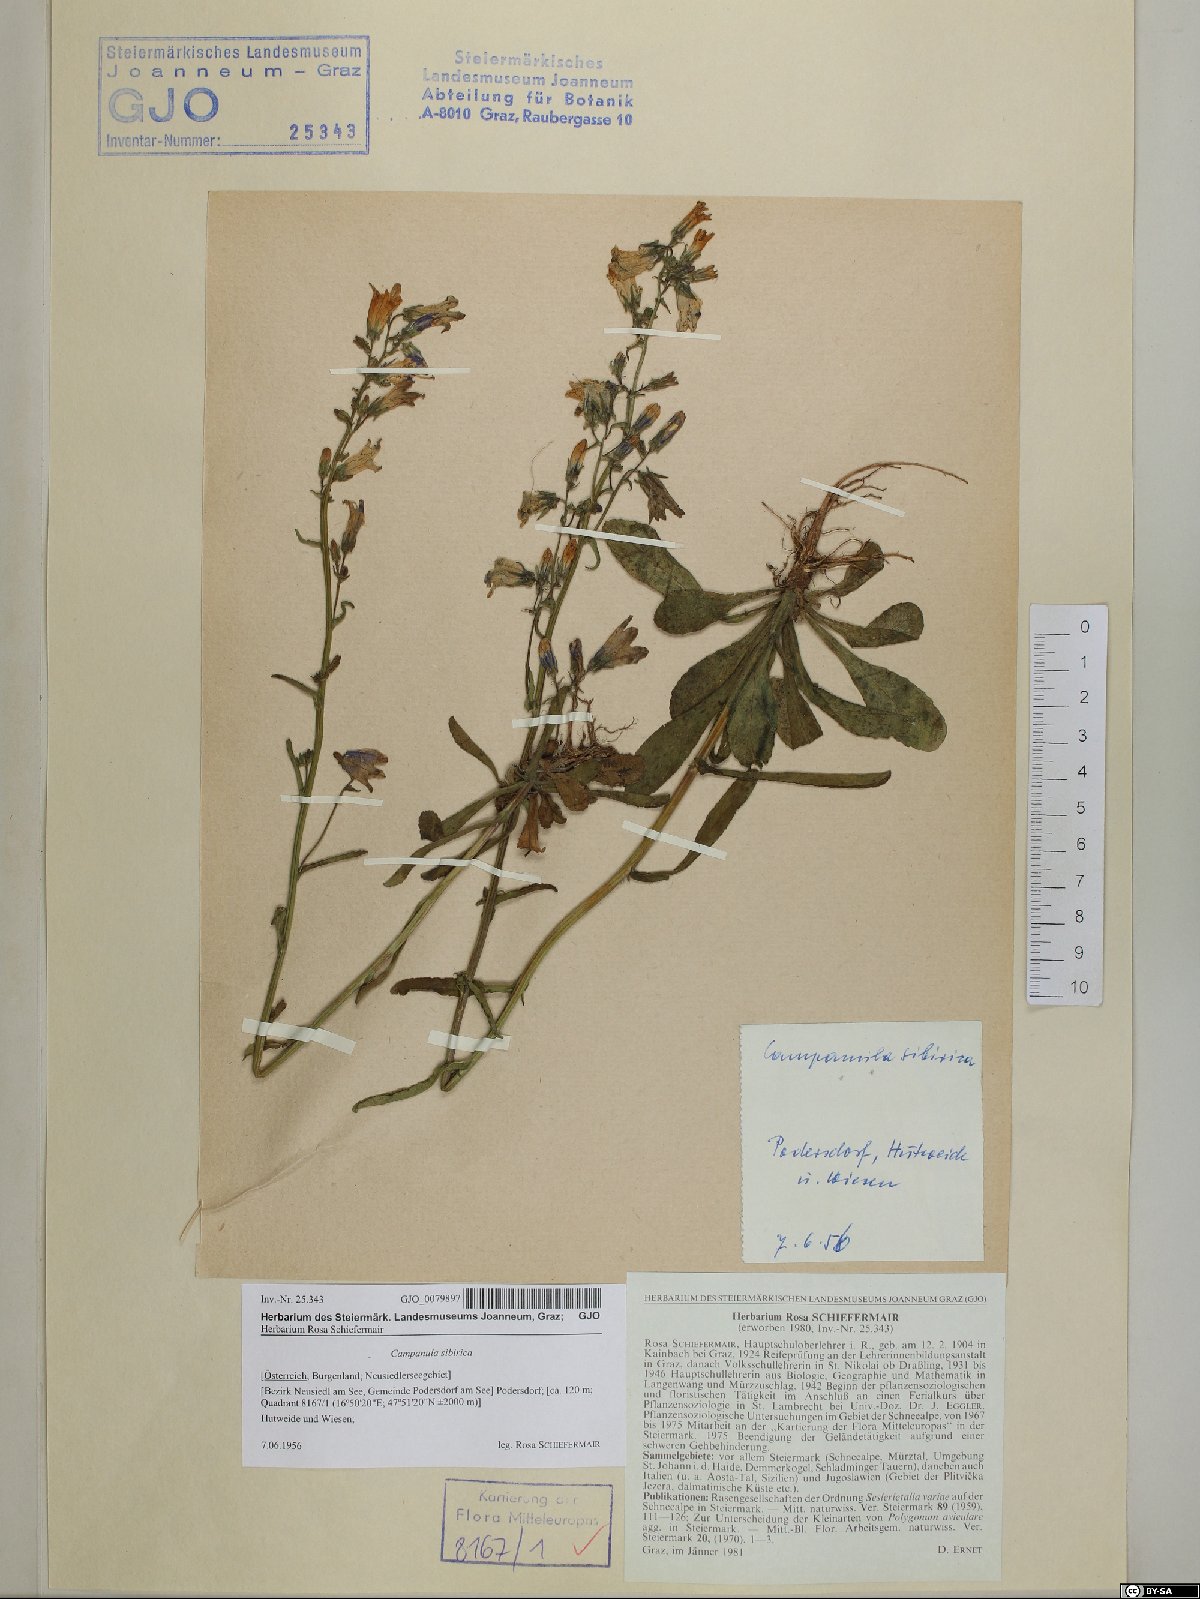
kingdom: Plantae
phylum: Tracheophyta
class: Magnoliopsida
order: Asterales
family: Campanulaceae
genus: Campanula
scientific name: Campanula sibirica
